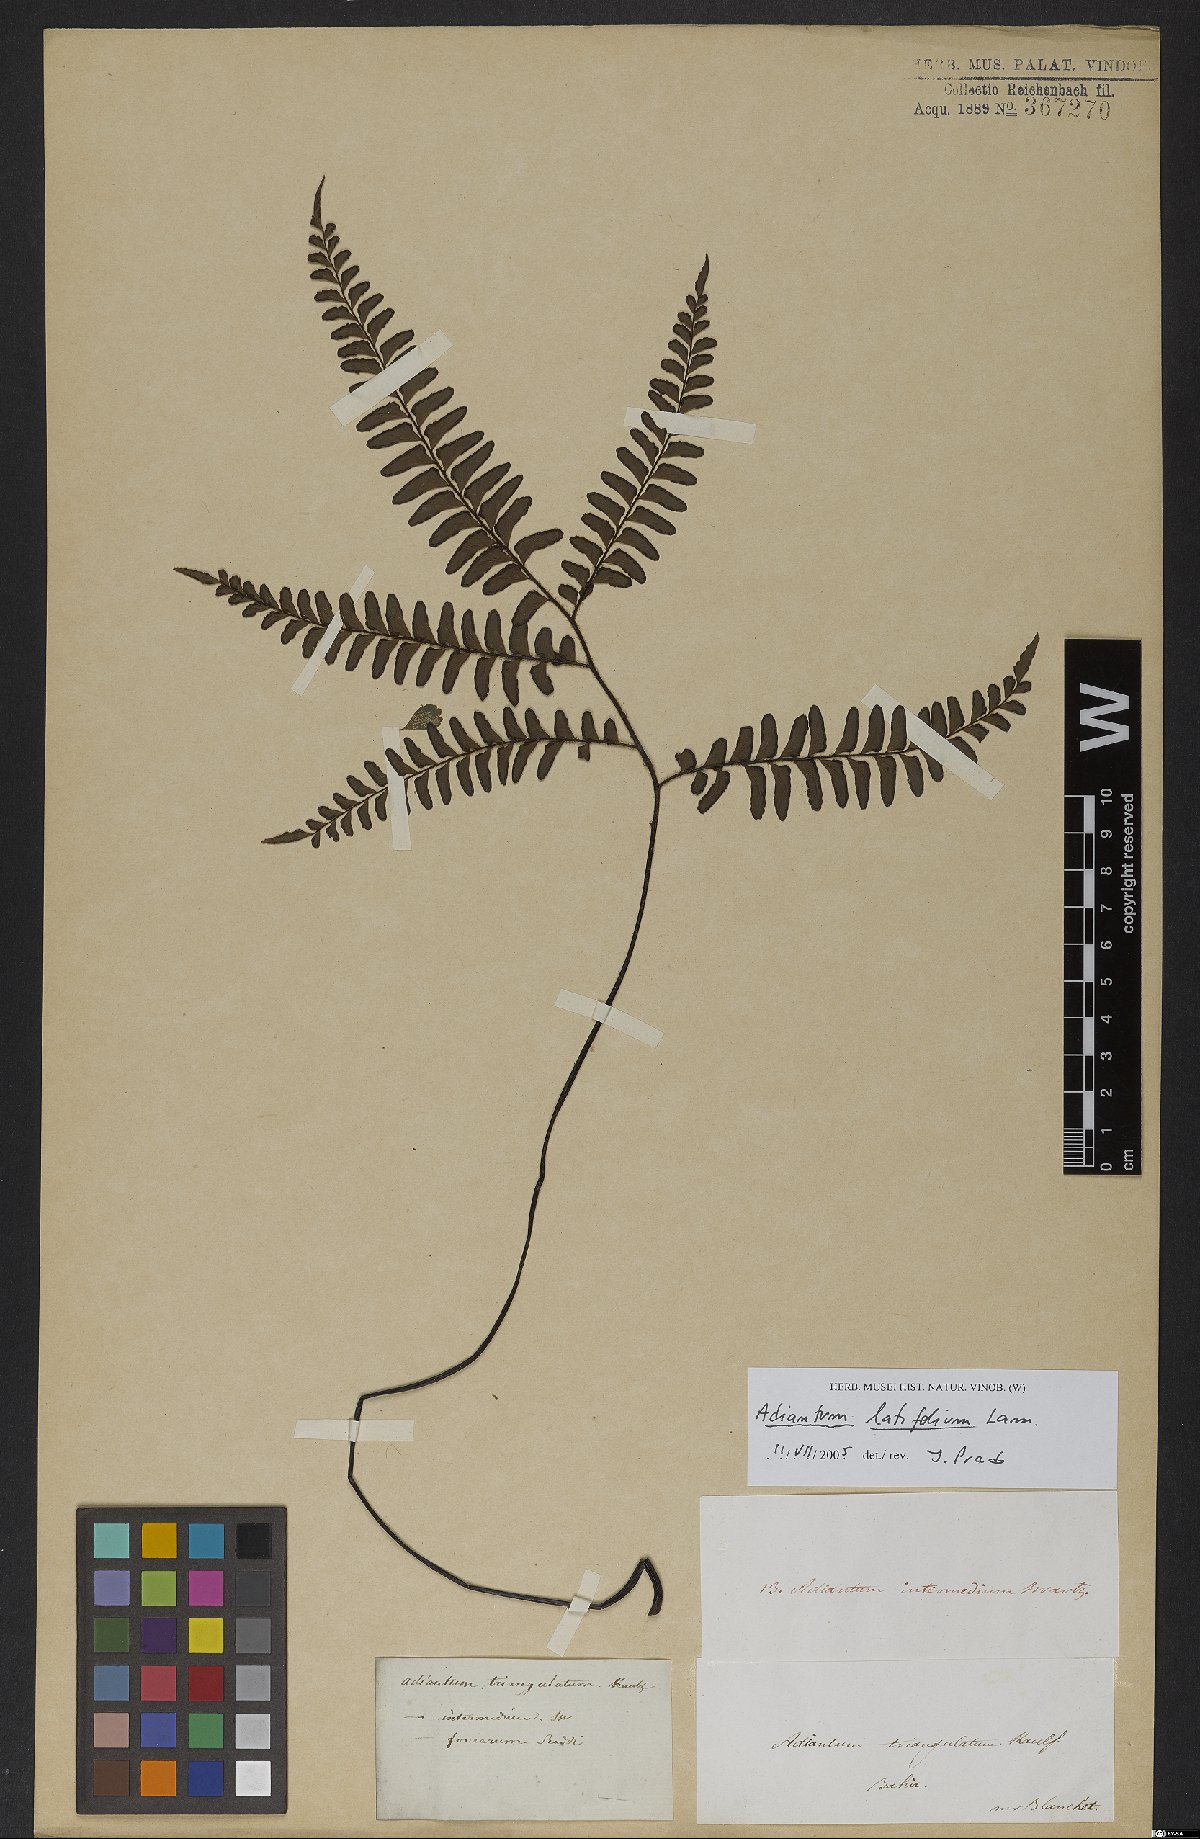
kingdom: Plantae
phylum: Tracheophyta
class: Polypodiopsida
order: Polypodiales
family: Pteridaceae
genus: Adiantum
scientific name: Adiantum latifolium
